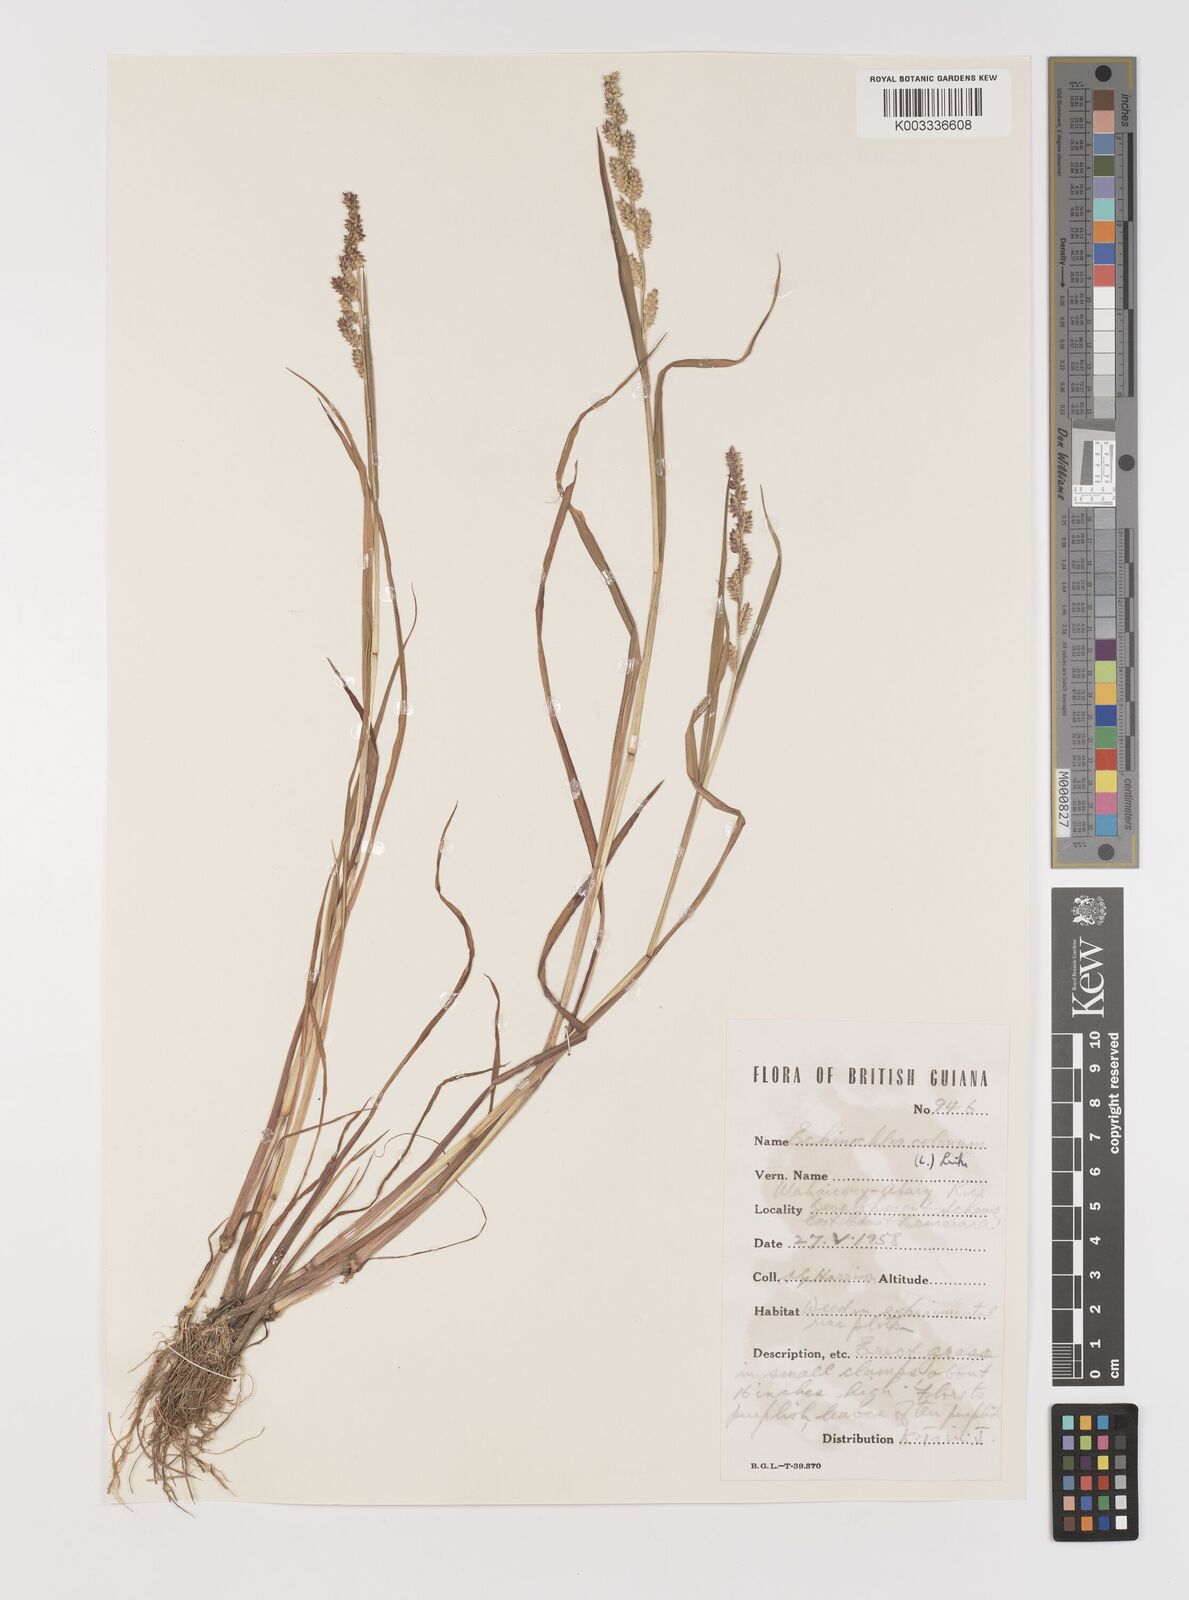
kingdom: Plantae
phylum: Tracheophyta
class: Liliopsida
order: Poales
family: Poaceae
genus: Echinochloa
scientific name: Echinochloa colonum
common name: Jungle rice
